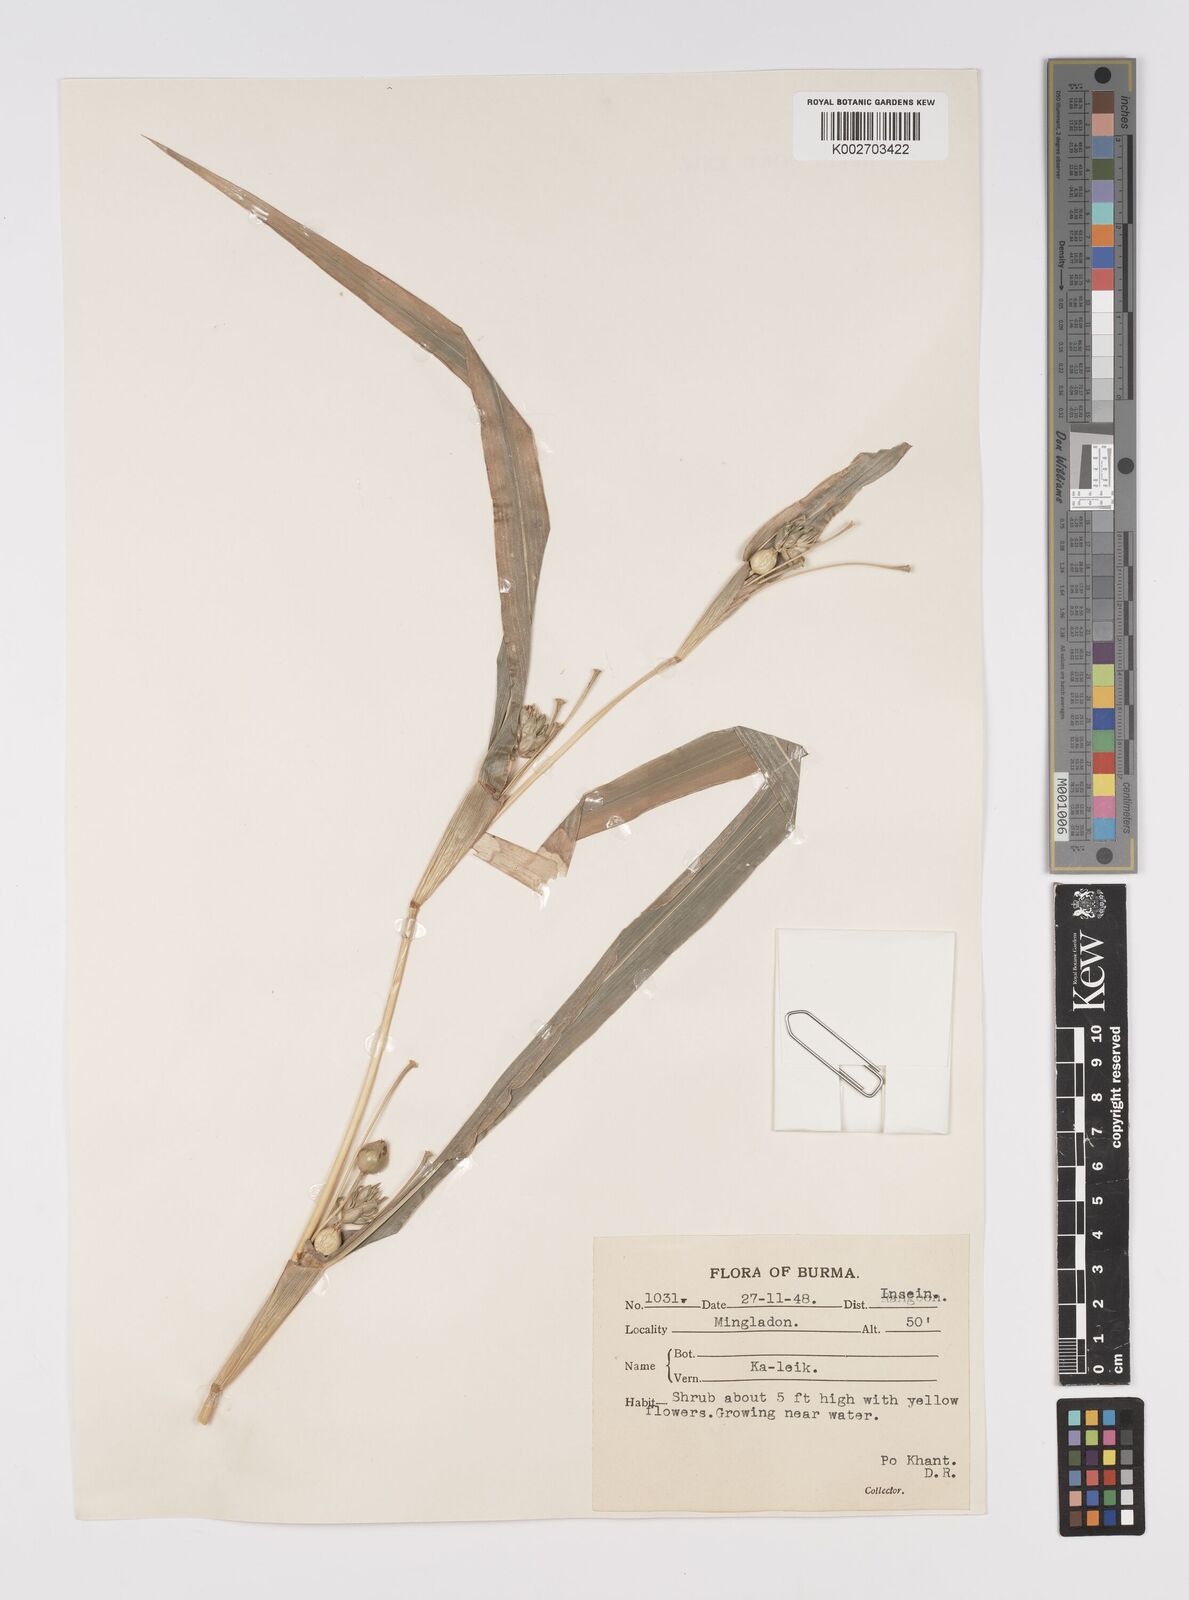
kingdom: Plantae
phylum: Tracheophyta
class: Liliopsida
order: Poales
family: Poaceae
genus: Coix
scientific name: Coix lacryma-jobi
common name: Job's tears
